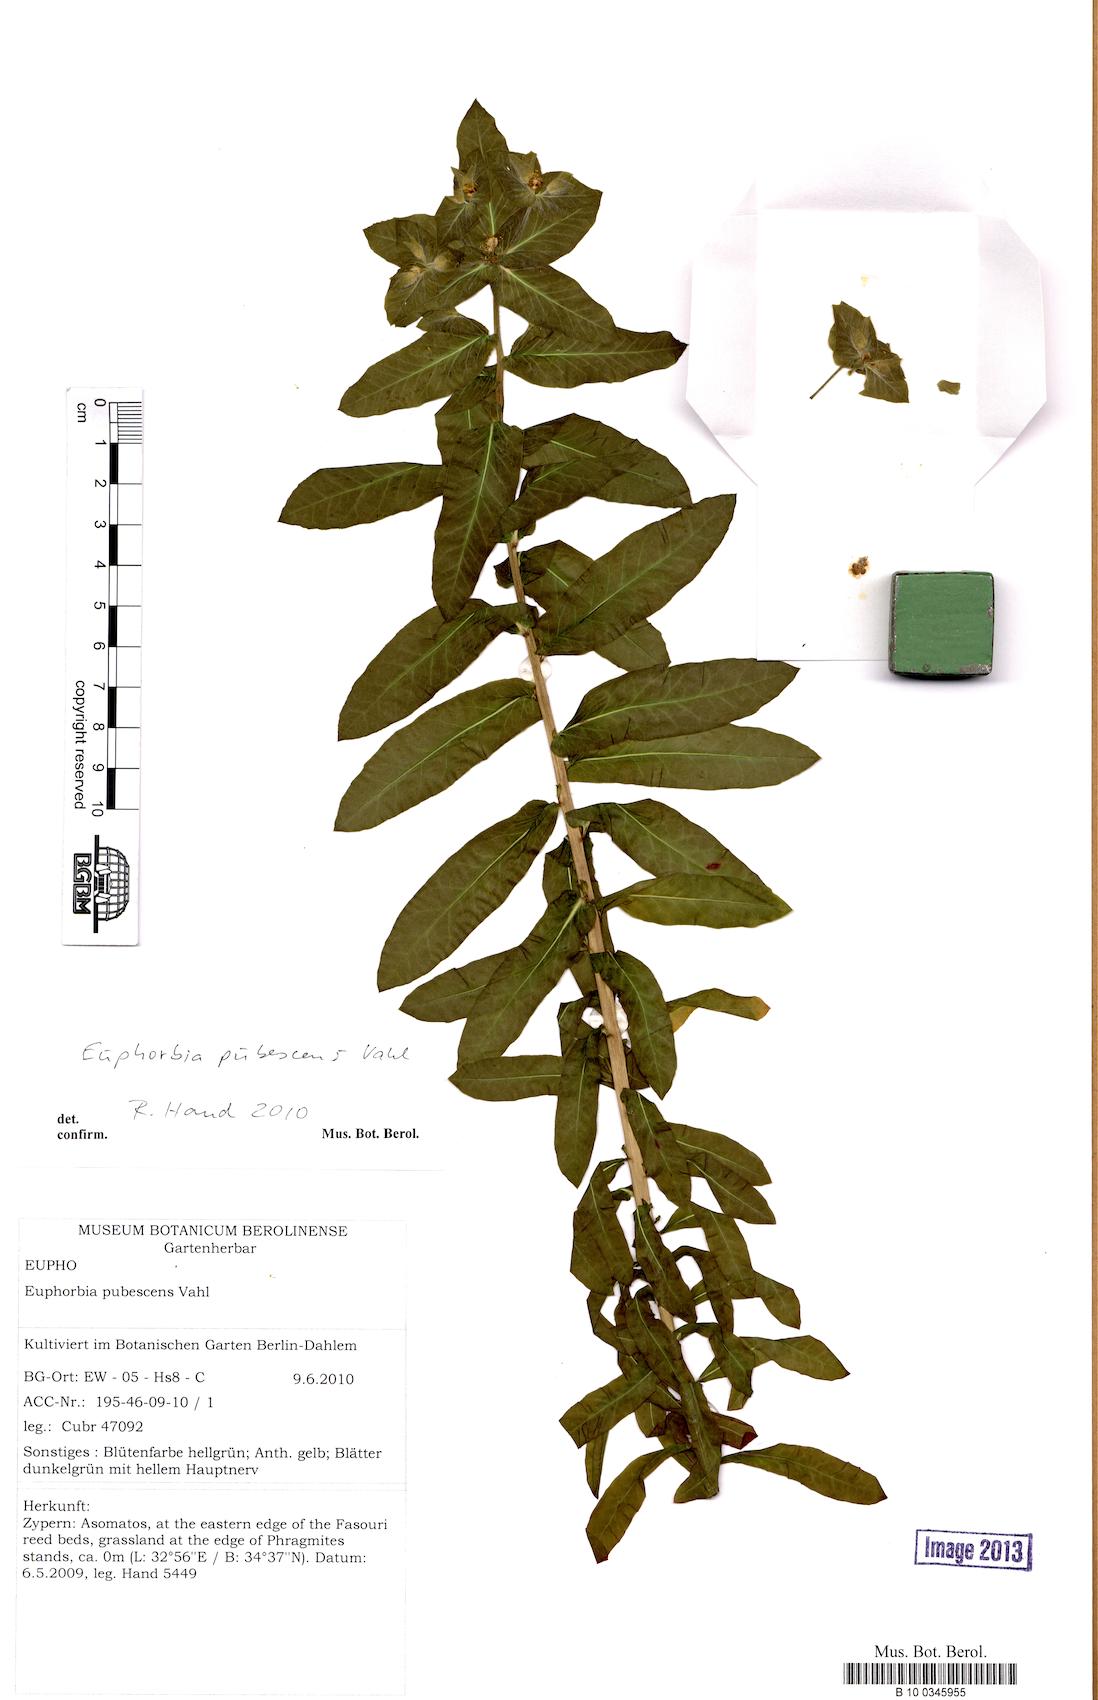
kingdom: Plantae
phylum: Tracheophyta
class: Magnoliopsida
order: Malpighiales
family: Euphorbiaceae
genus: Euphorbia
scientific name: Euphorbia hirsuta
